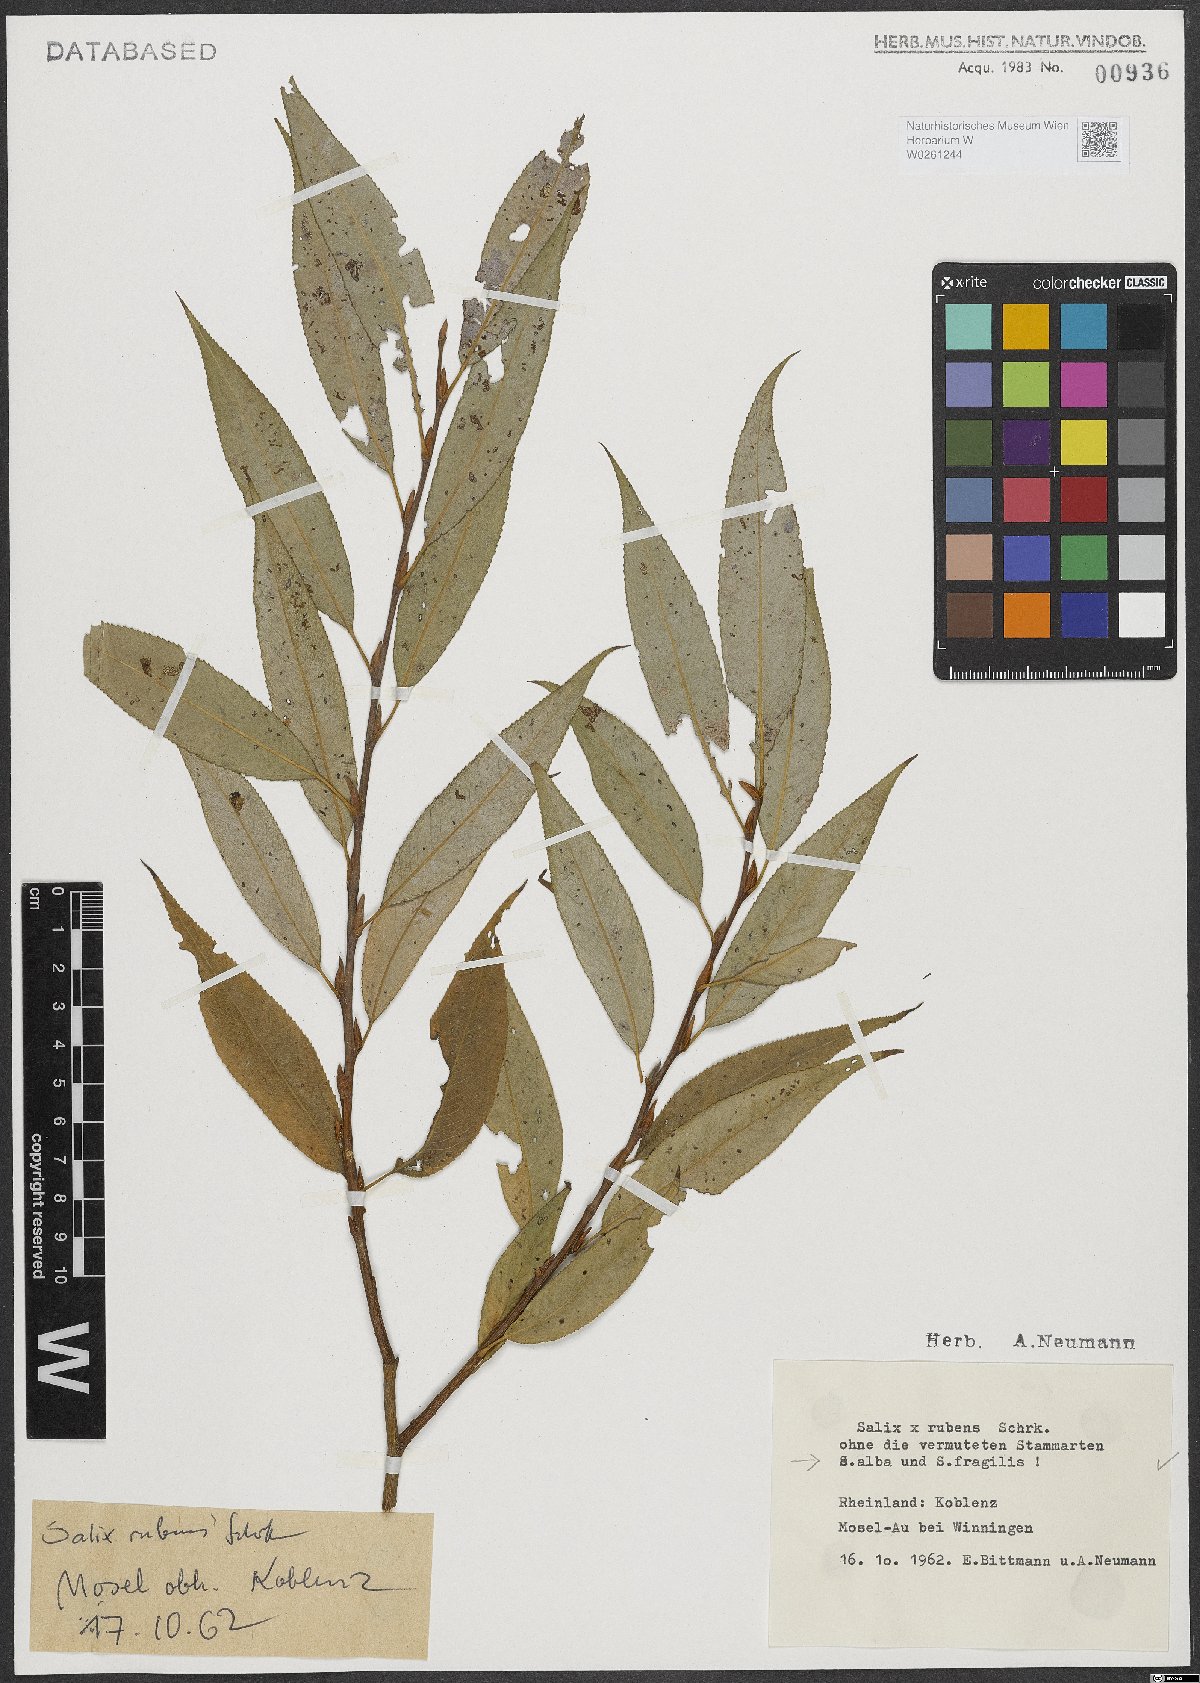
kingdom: Plantae
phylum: Tracheophyta
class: Magnoliopsida
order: Malpighiales
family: Salicaceae
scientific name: Salicaceae
